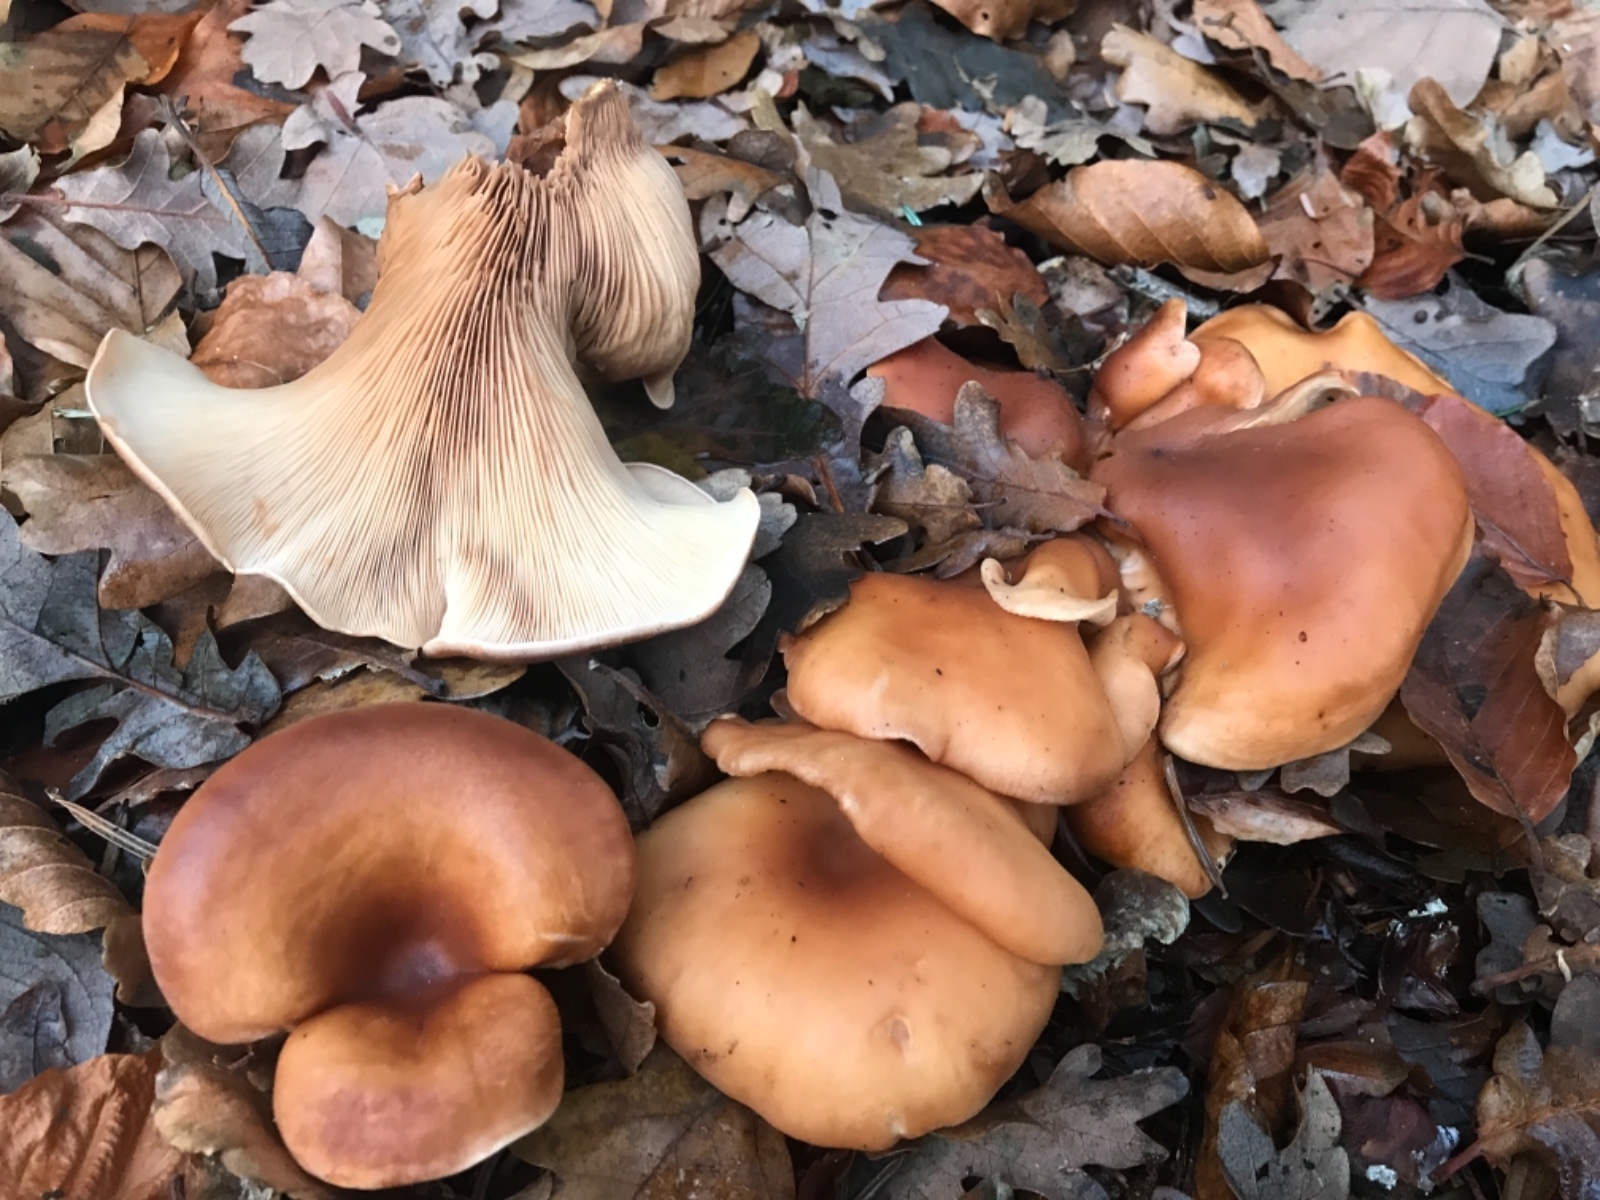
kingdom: Fungi
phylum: Basidiomycota
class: Agaricomycetes
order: Agaricales
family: Tricholomataceae
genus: Paralepista
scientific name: Paralepista flaccida
